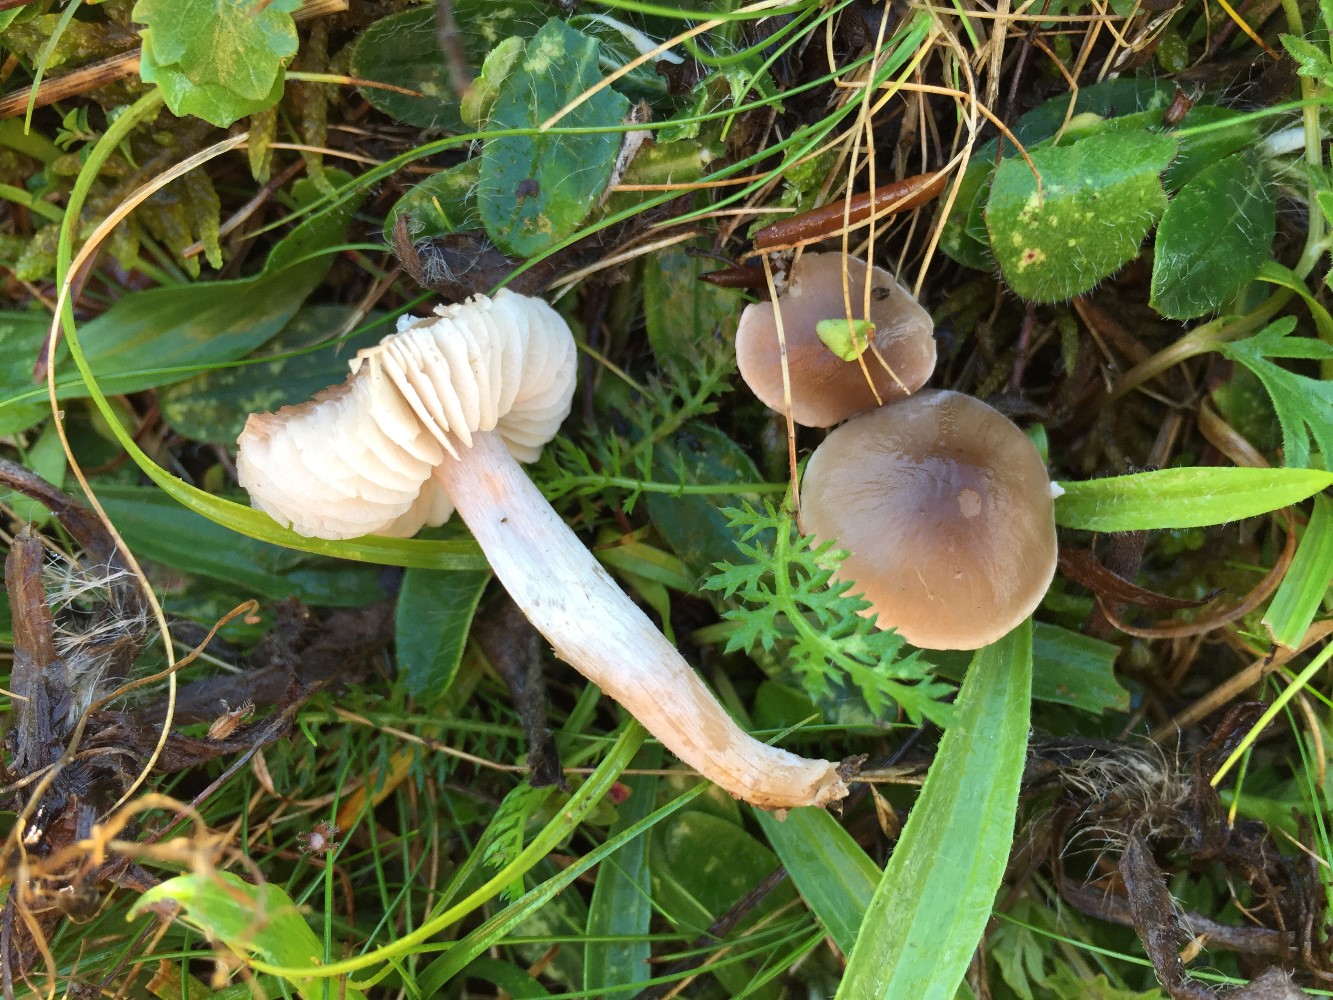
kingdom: Fungi
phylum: Basidiomycota
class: Agaricomycetes
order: Agaricales
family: Tricholomataceae
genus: Dermoloma
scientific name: Dermoloma cuneifolium
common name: eng-nonnehat
